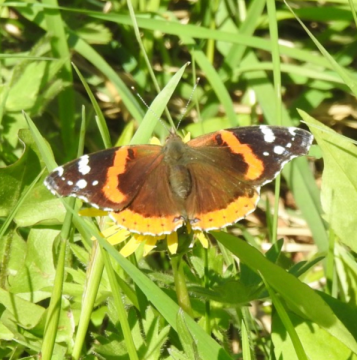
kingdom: Animalia
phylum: Arthropoda
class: Insecta
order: Lepidoptera
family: Nymphalidae
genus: Vanessa
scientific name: Vanessa atalanta
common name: Red Admiral
